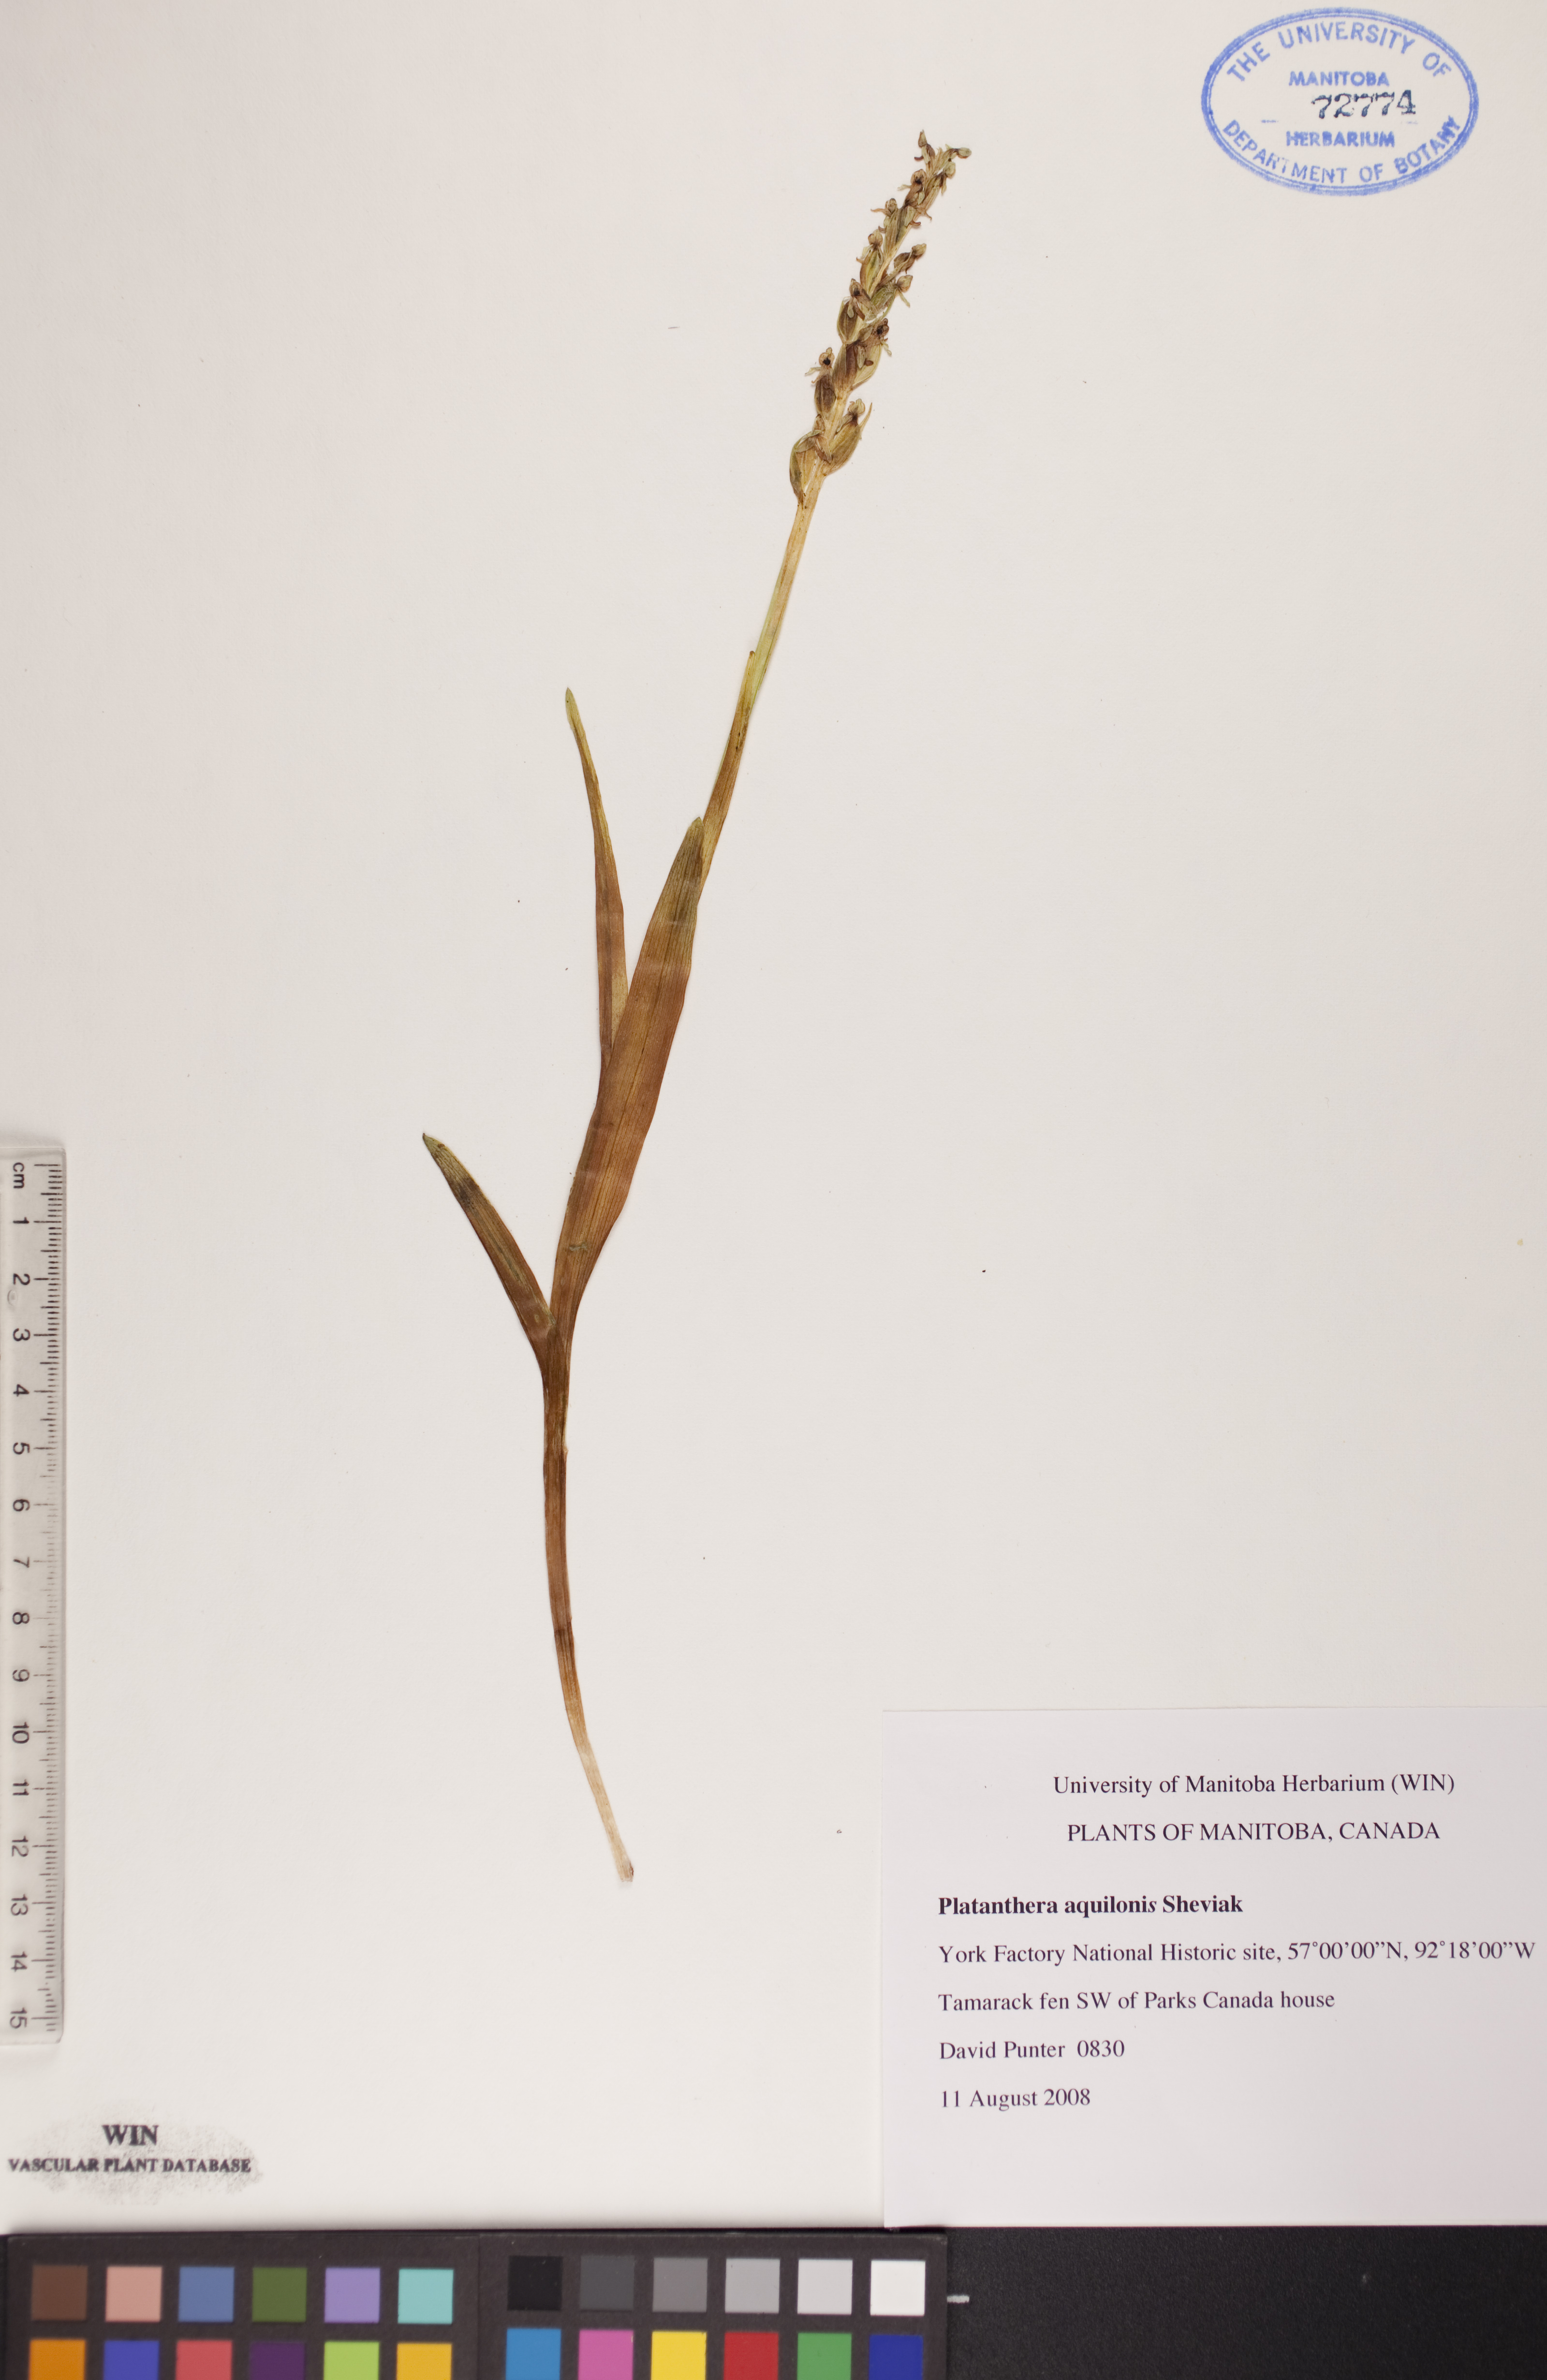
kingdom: Plantae
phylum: Tracheophyta
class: Liliopsida
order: Asparagales
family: Orchidaceae
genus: Platanthera
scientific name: Platanthera aquilonis
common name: Northern green orchid
